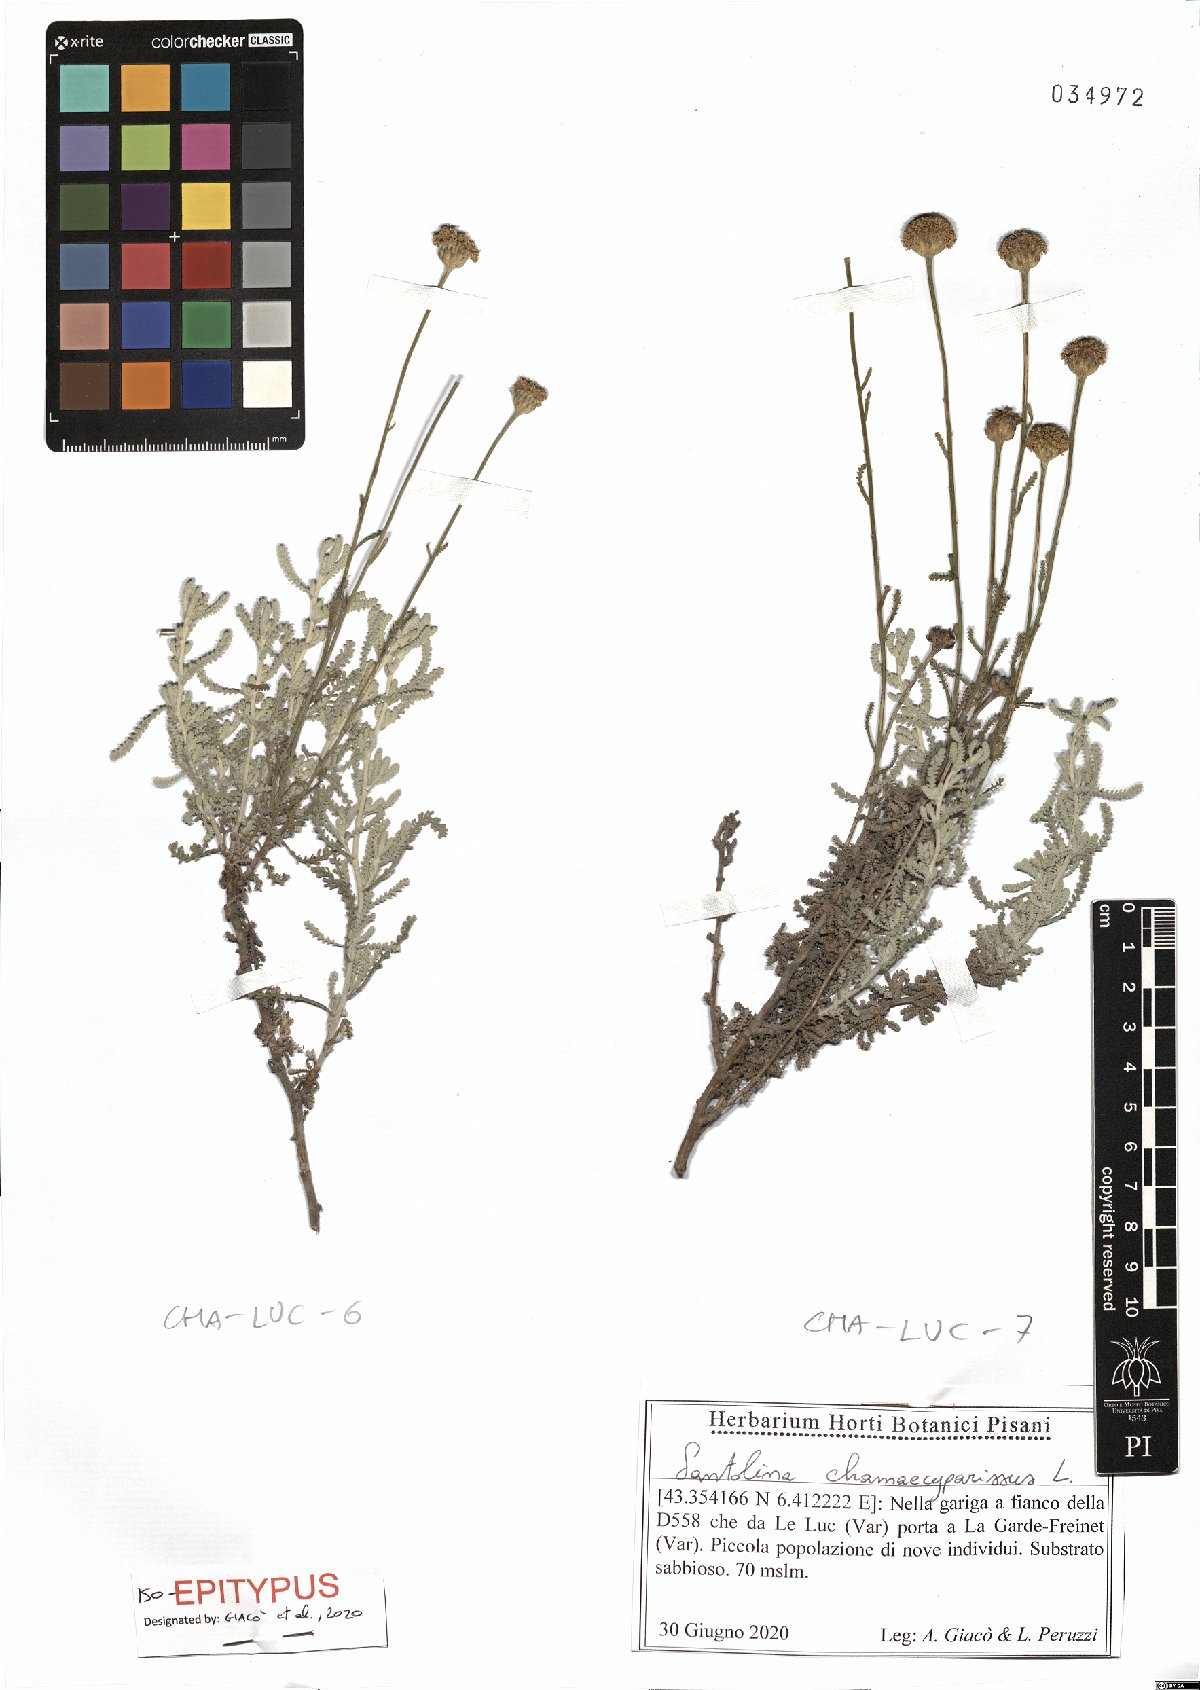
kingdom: Plantae
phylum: Tracheophyta
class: Magnoliopsida
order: Asterales
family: Asteraceae
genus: Santolina
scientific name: Santolina chamaecyparissus
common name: Lavender-cotton
